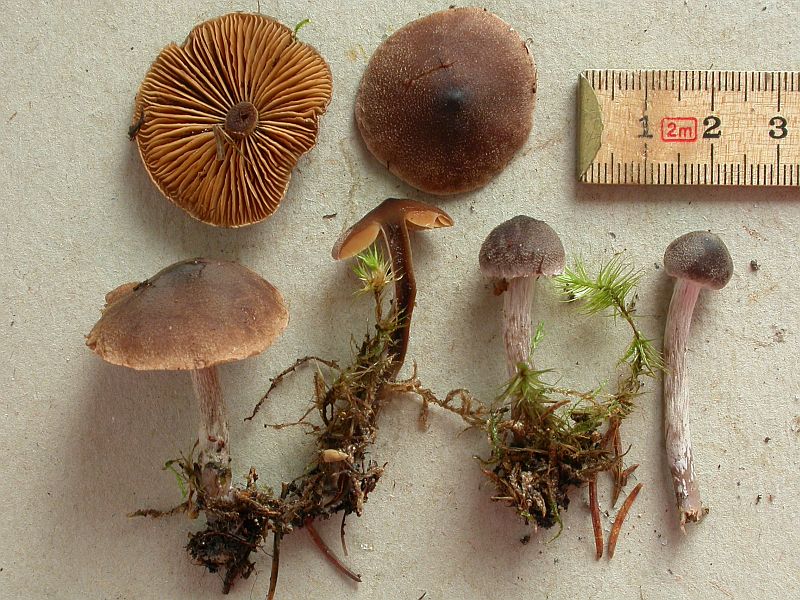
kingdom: Fungi
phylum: Basidiomycota
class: Agaricomycetes
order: Agaricales
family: Cortinariaceae
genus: Cortinarius
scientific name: Cortinarius pinisquamulosus
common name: finskællet slørhat
